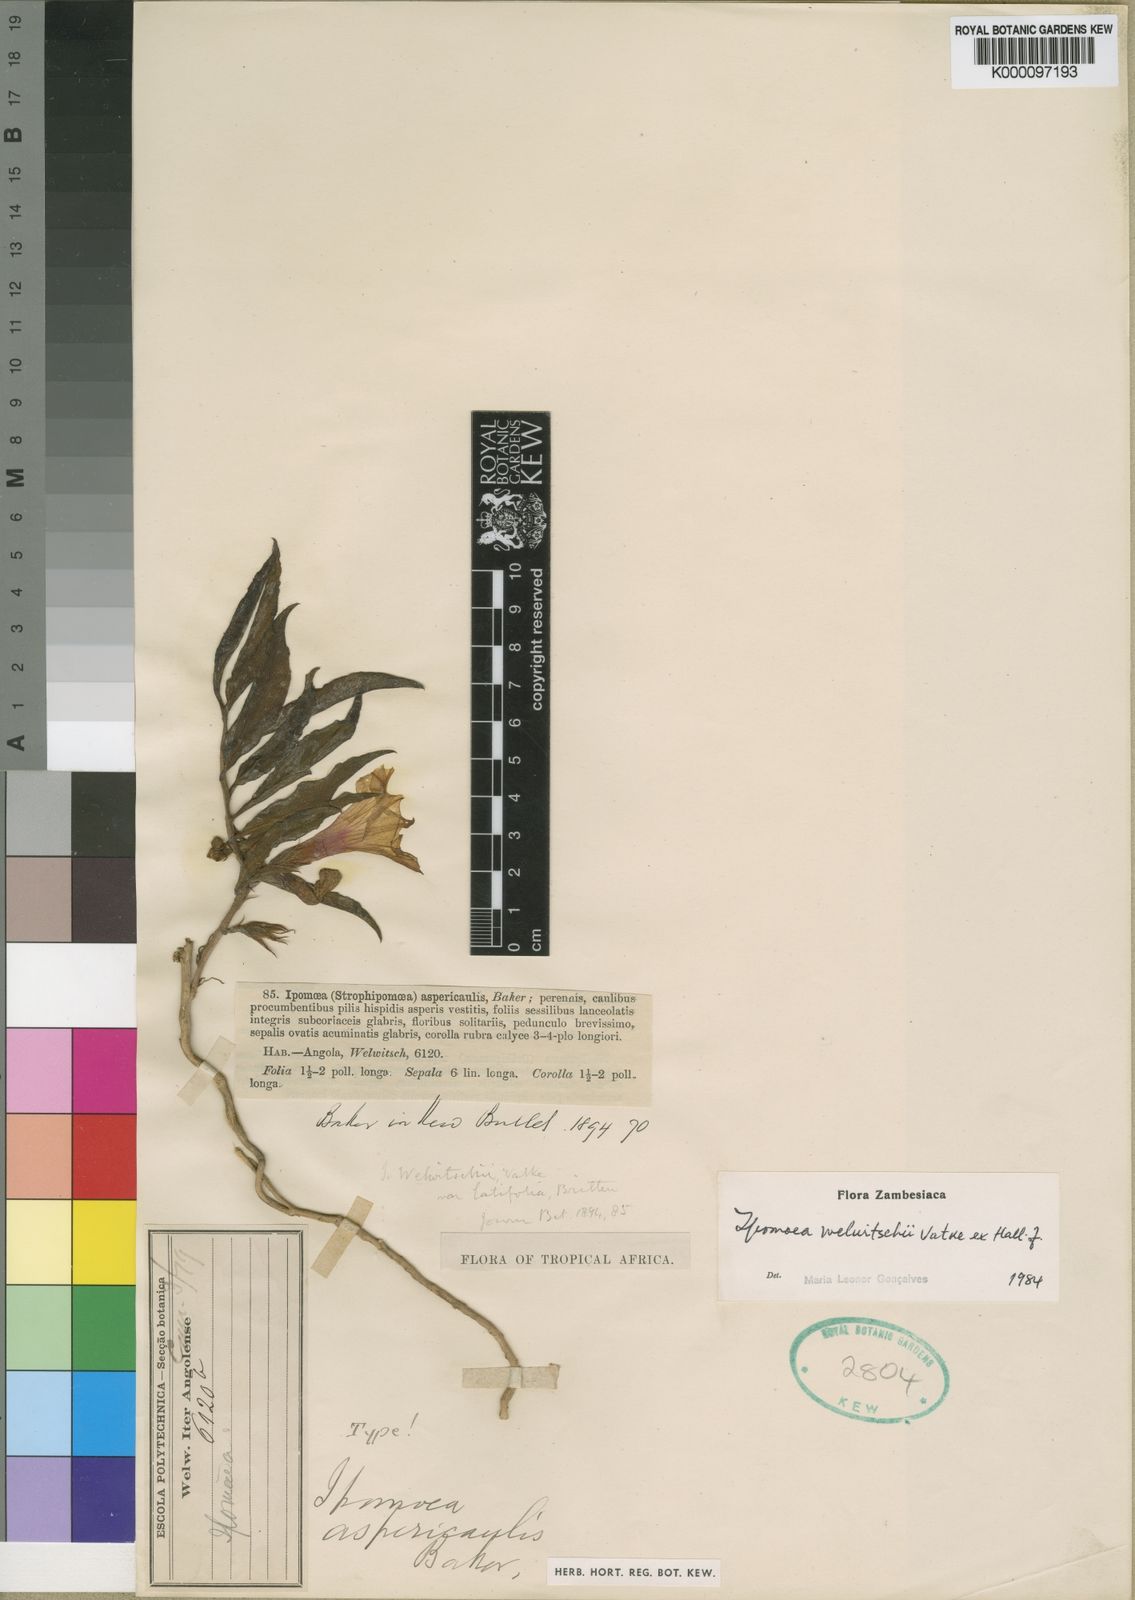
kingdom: Plantae
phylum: Tracheophyta
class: Magnoliopsida
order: Solanales
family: Convolvulaceae
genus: Ipomoea
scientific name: Ipomoea welwitschii
